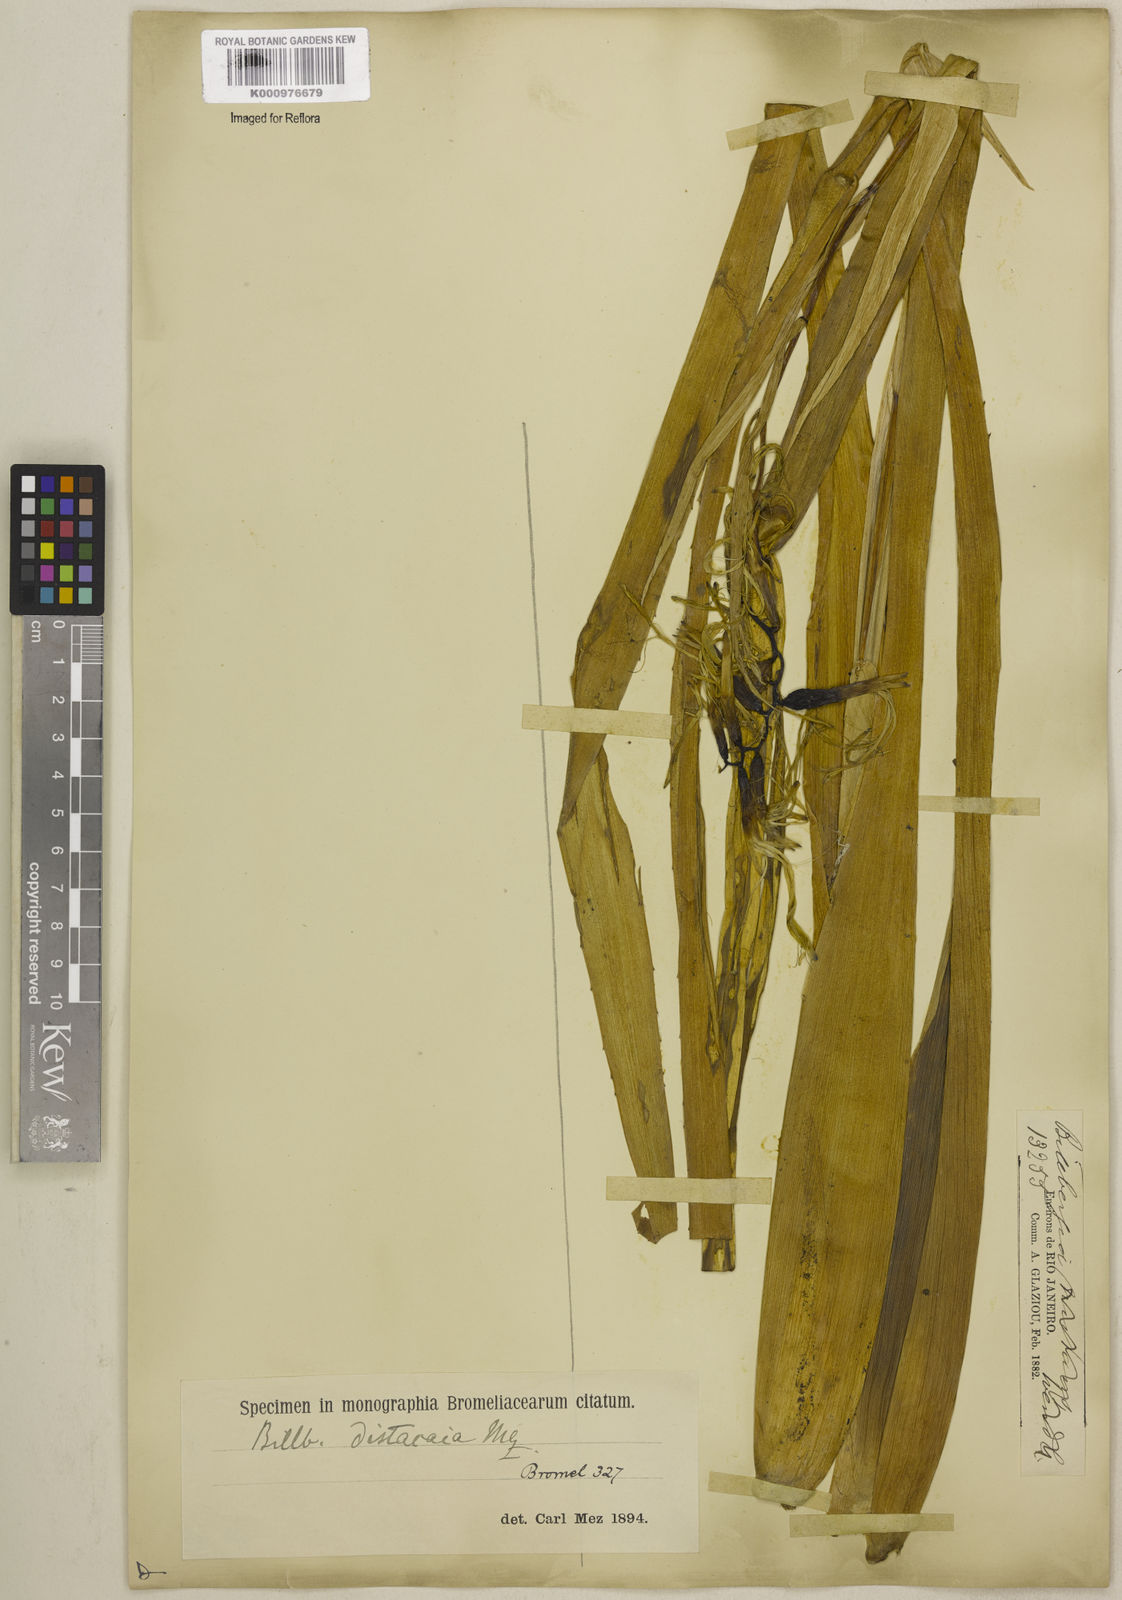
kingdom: Plantae
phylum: Tracheophyta
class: Liliopsida
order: Poales
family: Bromeliaceae
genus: Billbergia
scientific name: Billbergia distachia
